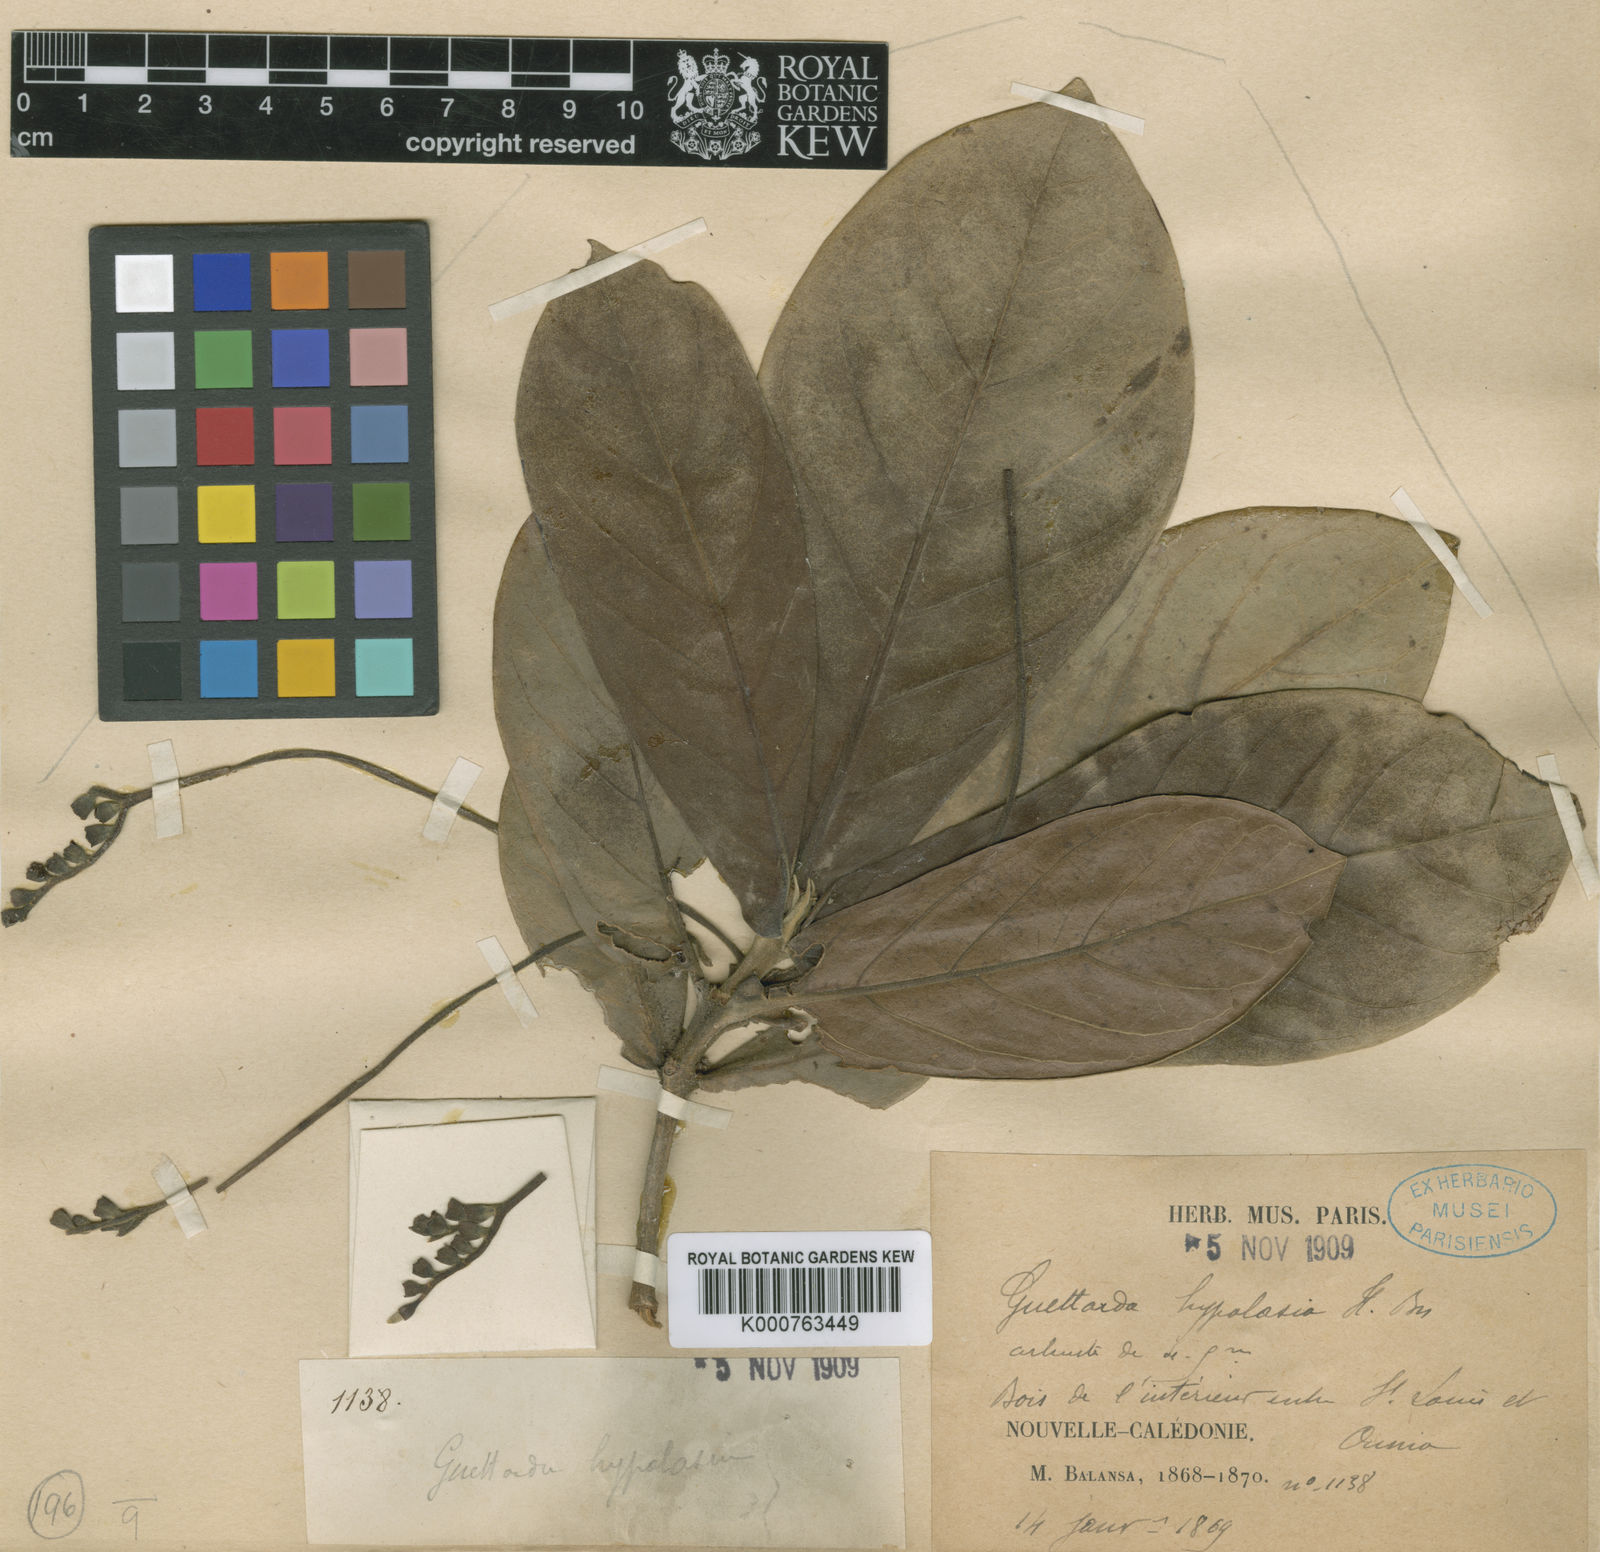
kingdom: Plantae
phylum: Tracheophyta
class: Magnoliopsida
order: Gentianales
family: Rubiaceae
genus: Achilleanthus
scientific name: Achilleanthus hypolasius
